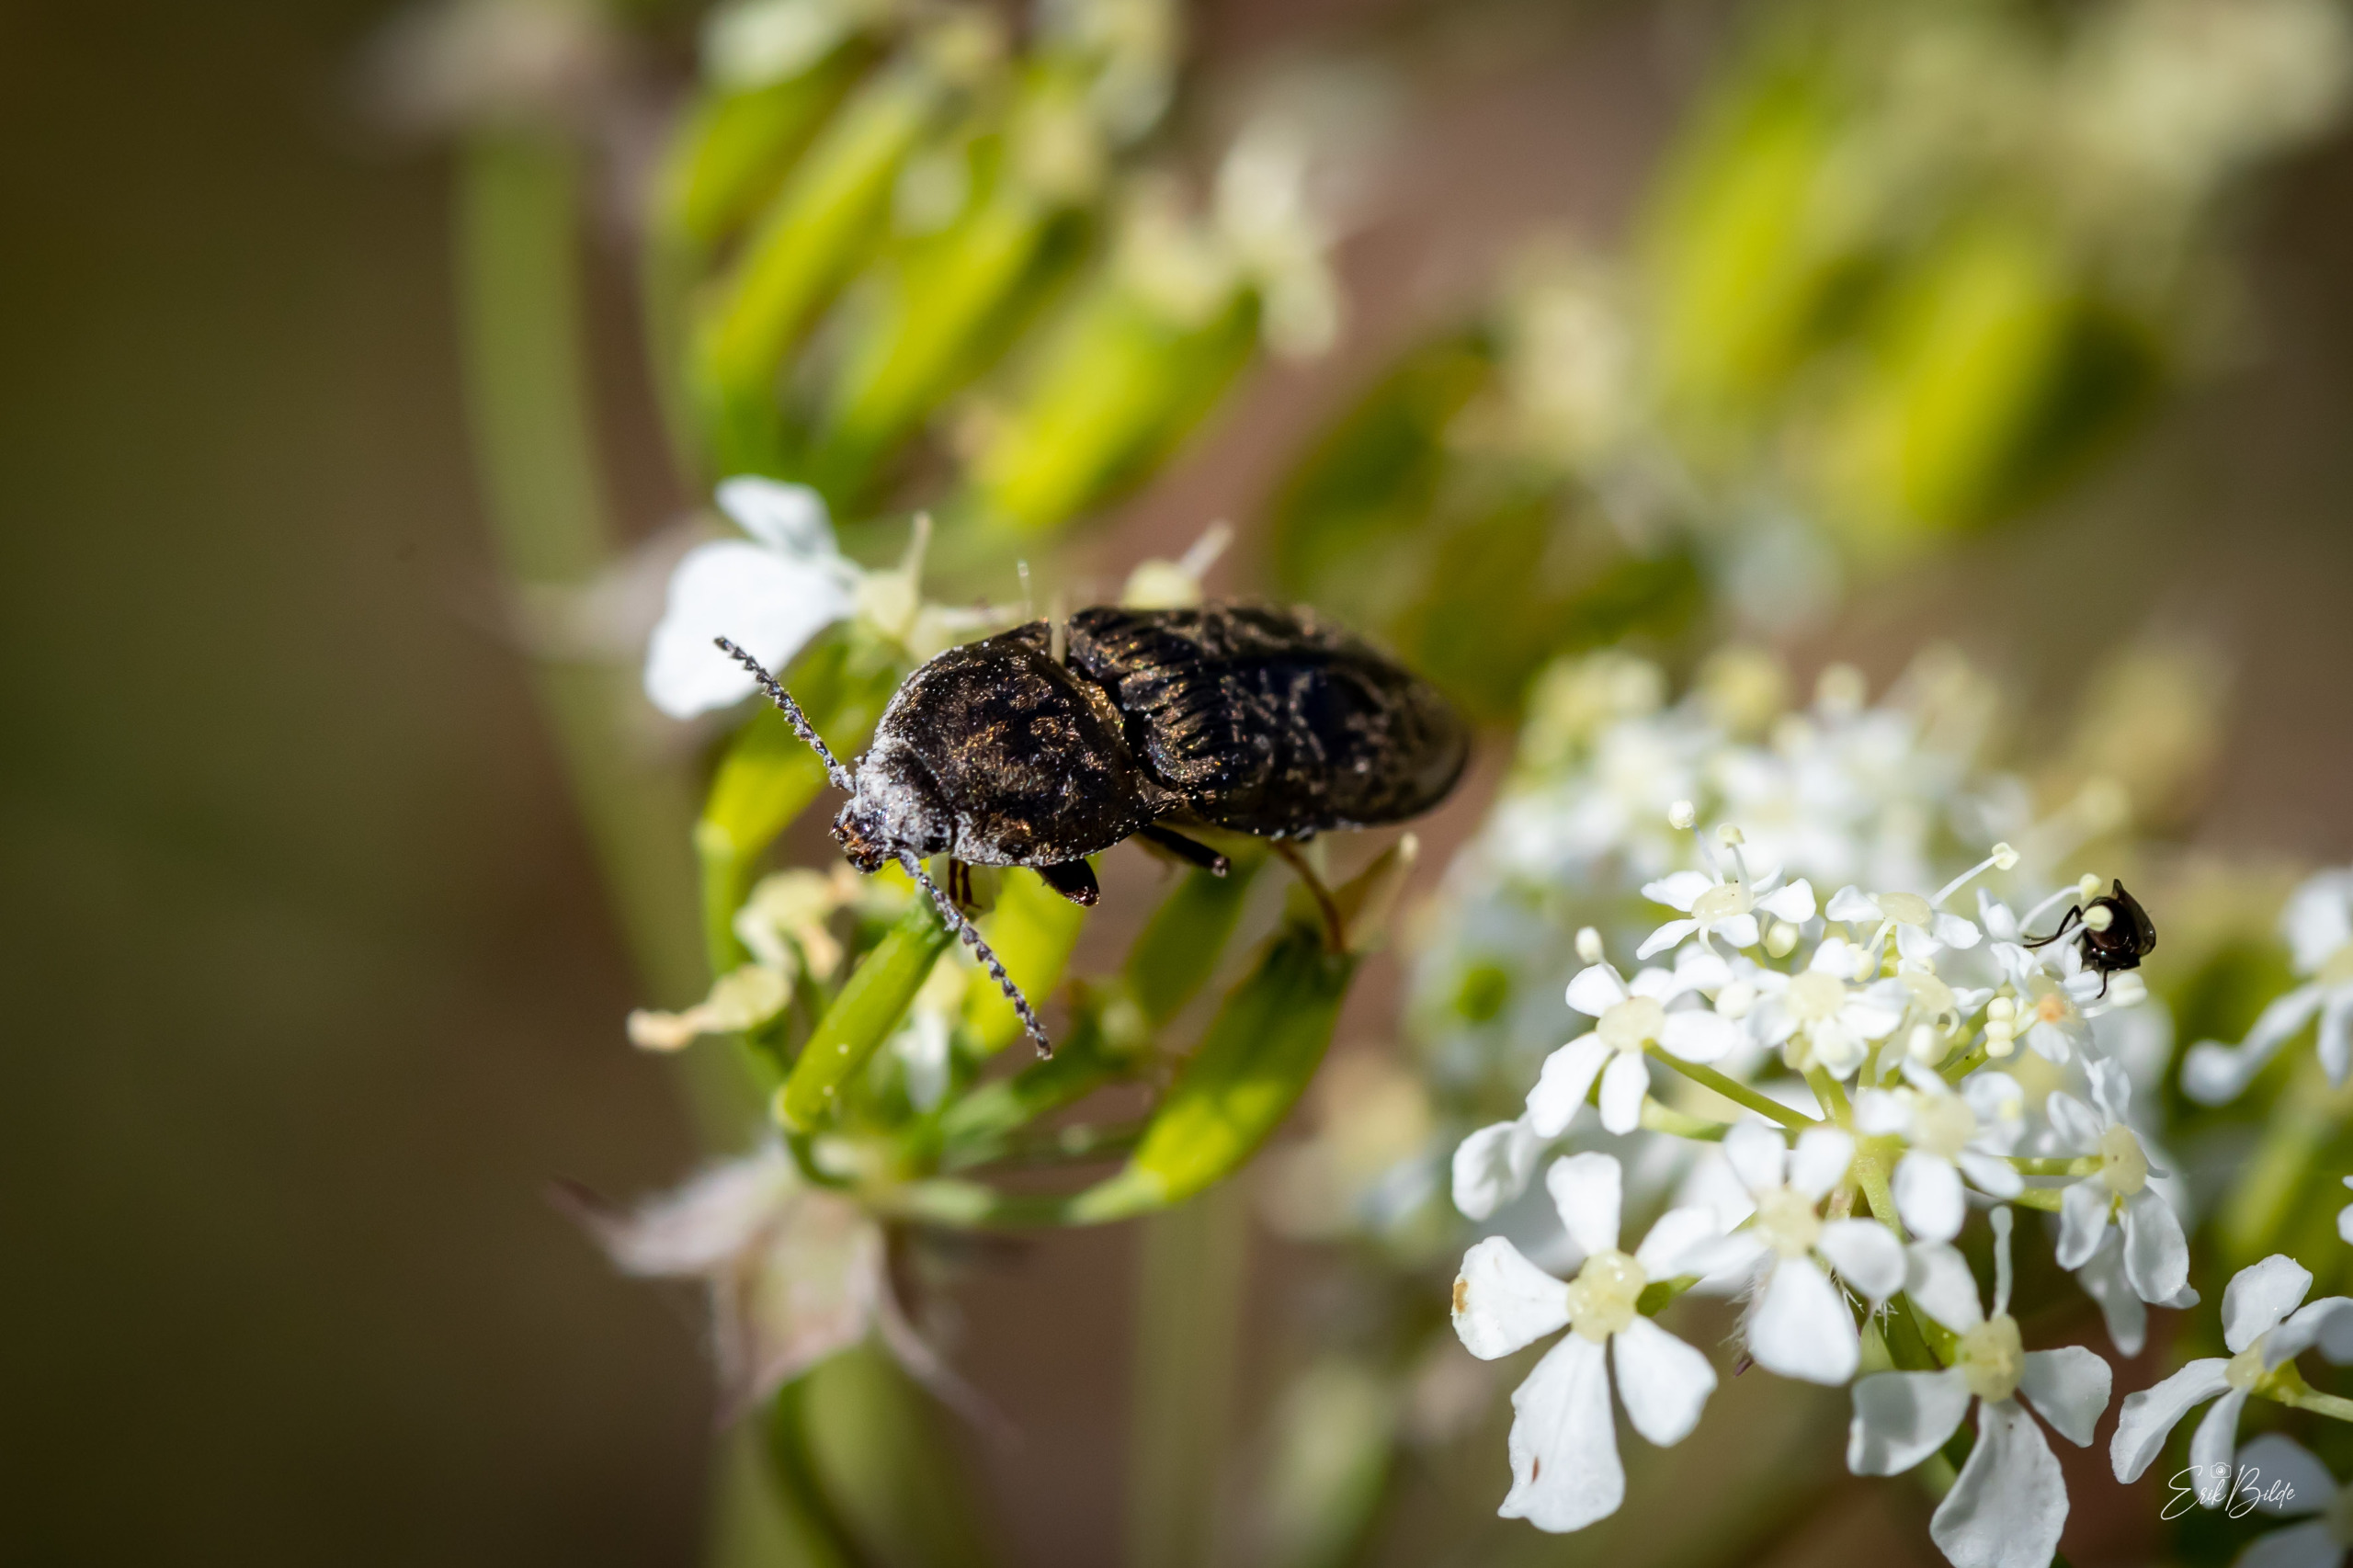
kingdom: Animalia
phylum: Arthropoda
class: Insecta
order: Coleoptera
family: Elateridae
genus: Prosternon
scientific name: Prosternon tessellatum
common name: Silkeglinsende jordsmælder
